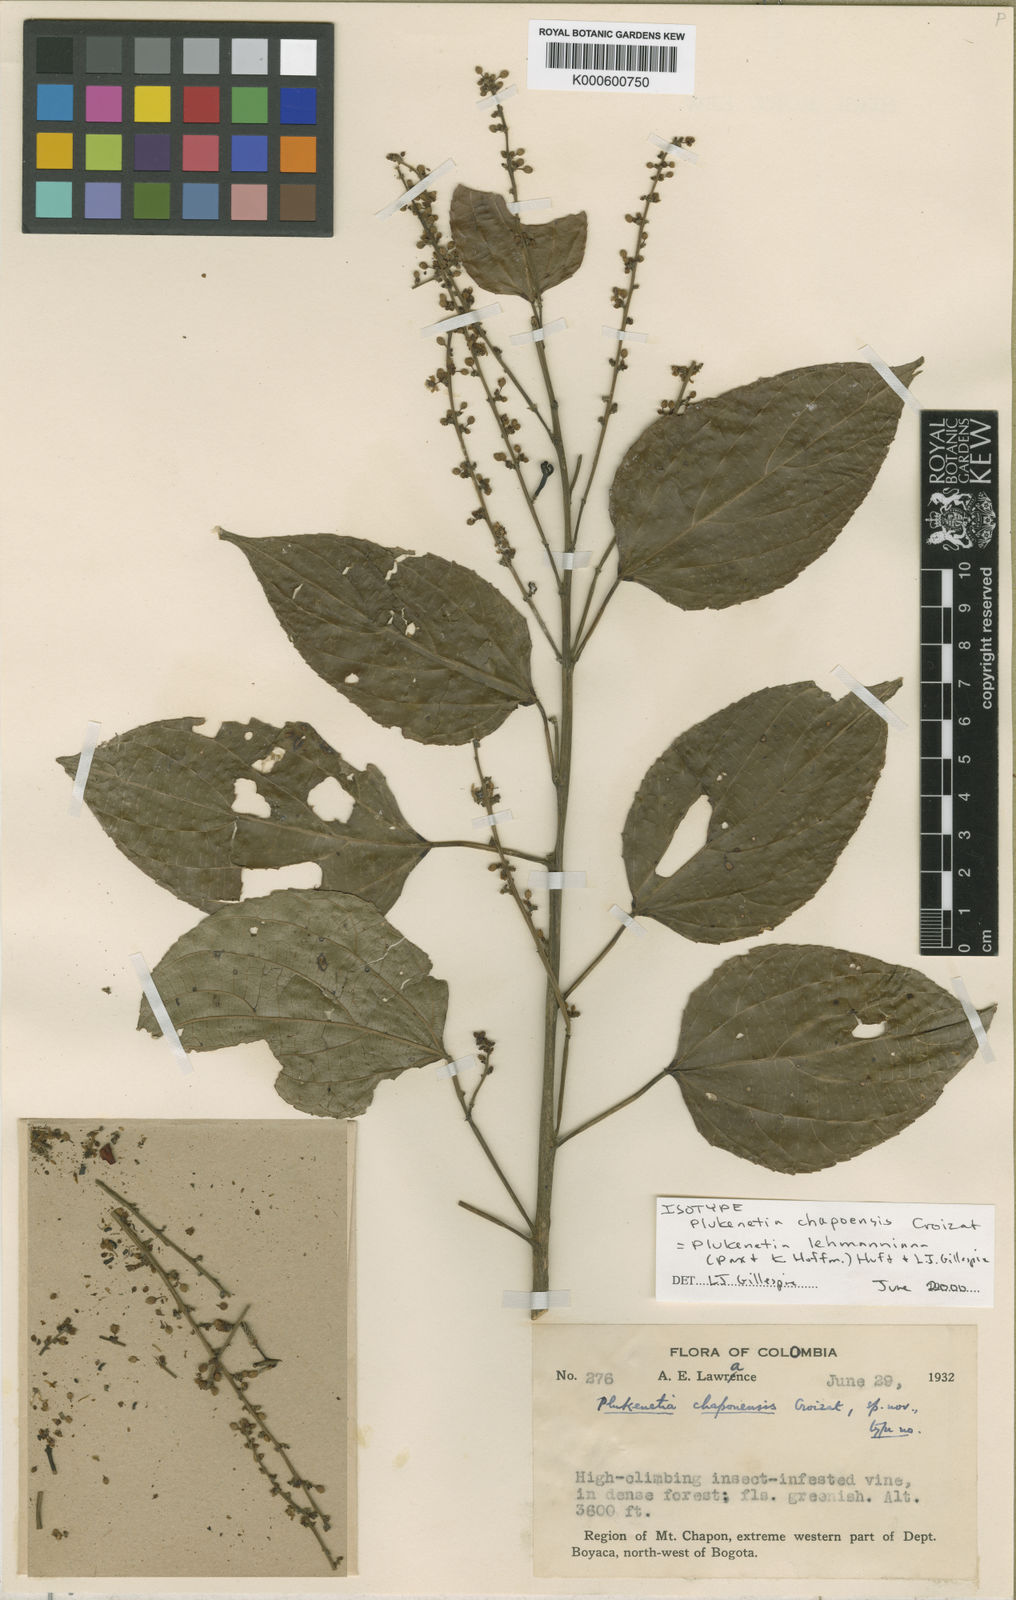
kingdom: Plantae
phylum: Tracheophyta
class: Magnoliopsida
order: Malpighiales
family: Euphorbiaceae
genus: Plukenetia
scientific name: Plukenetia
